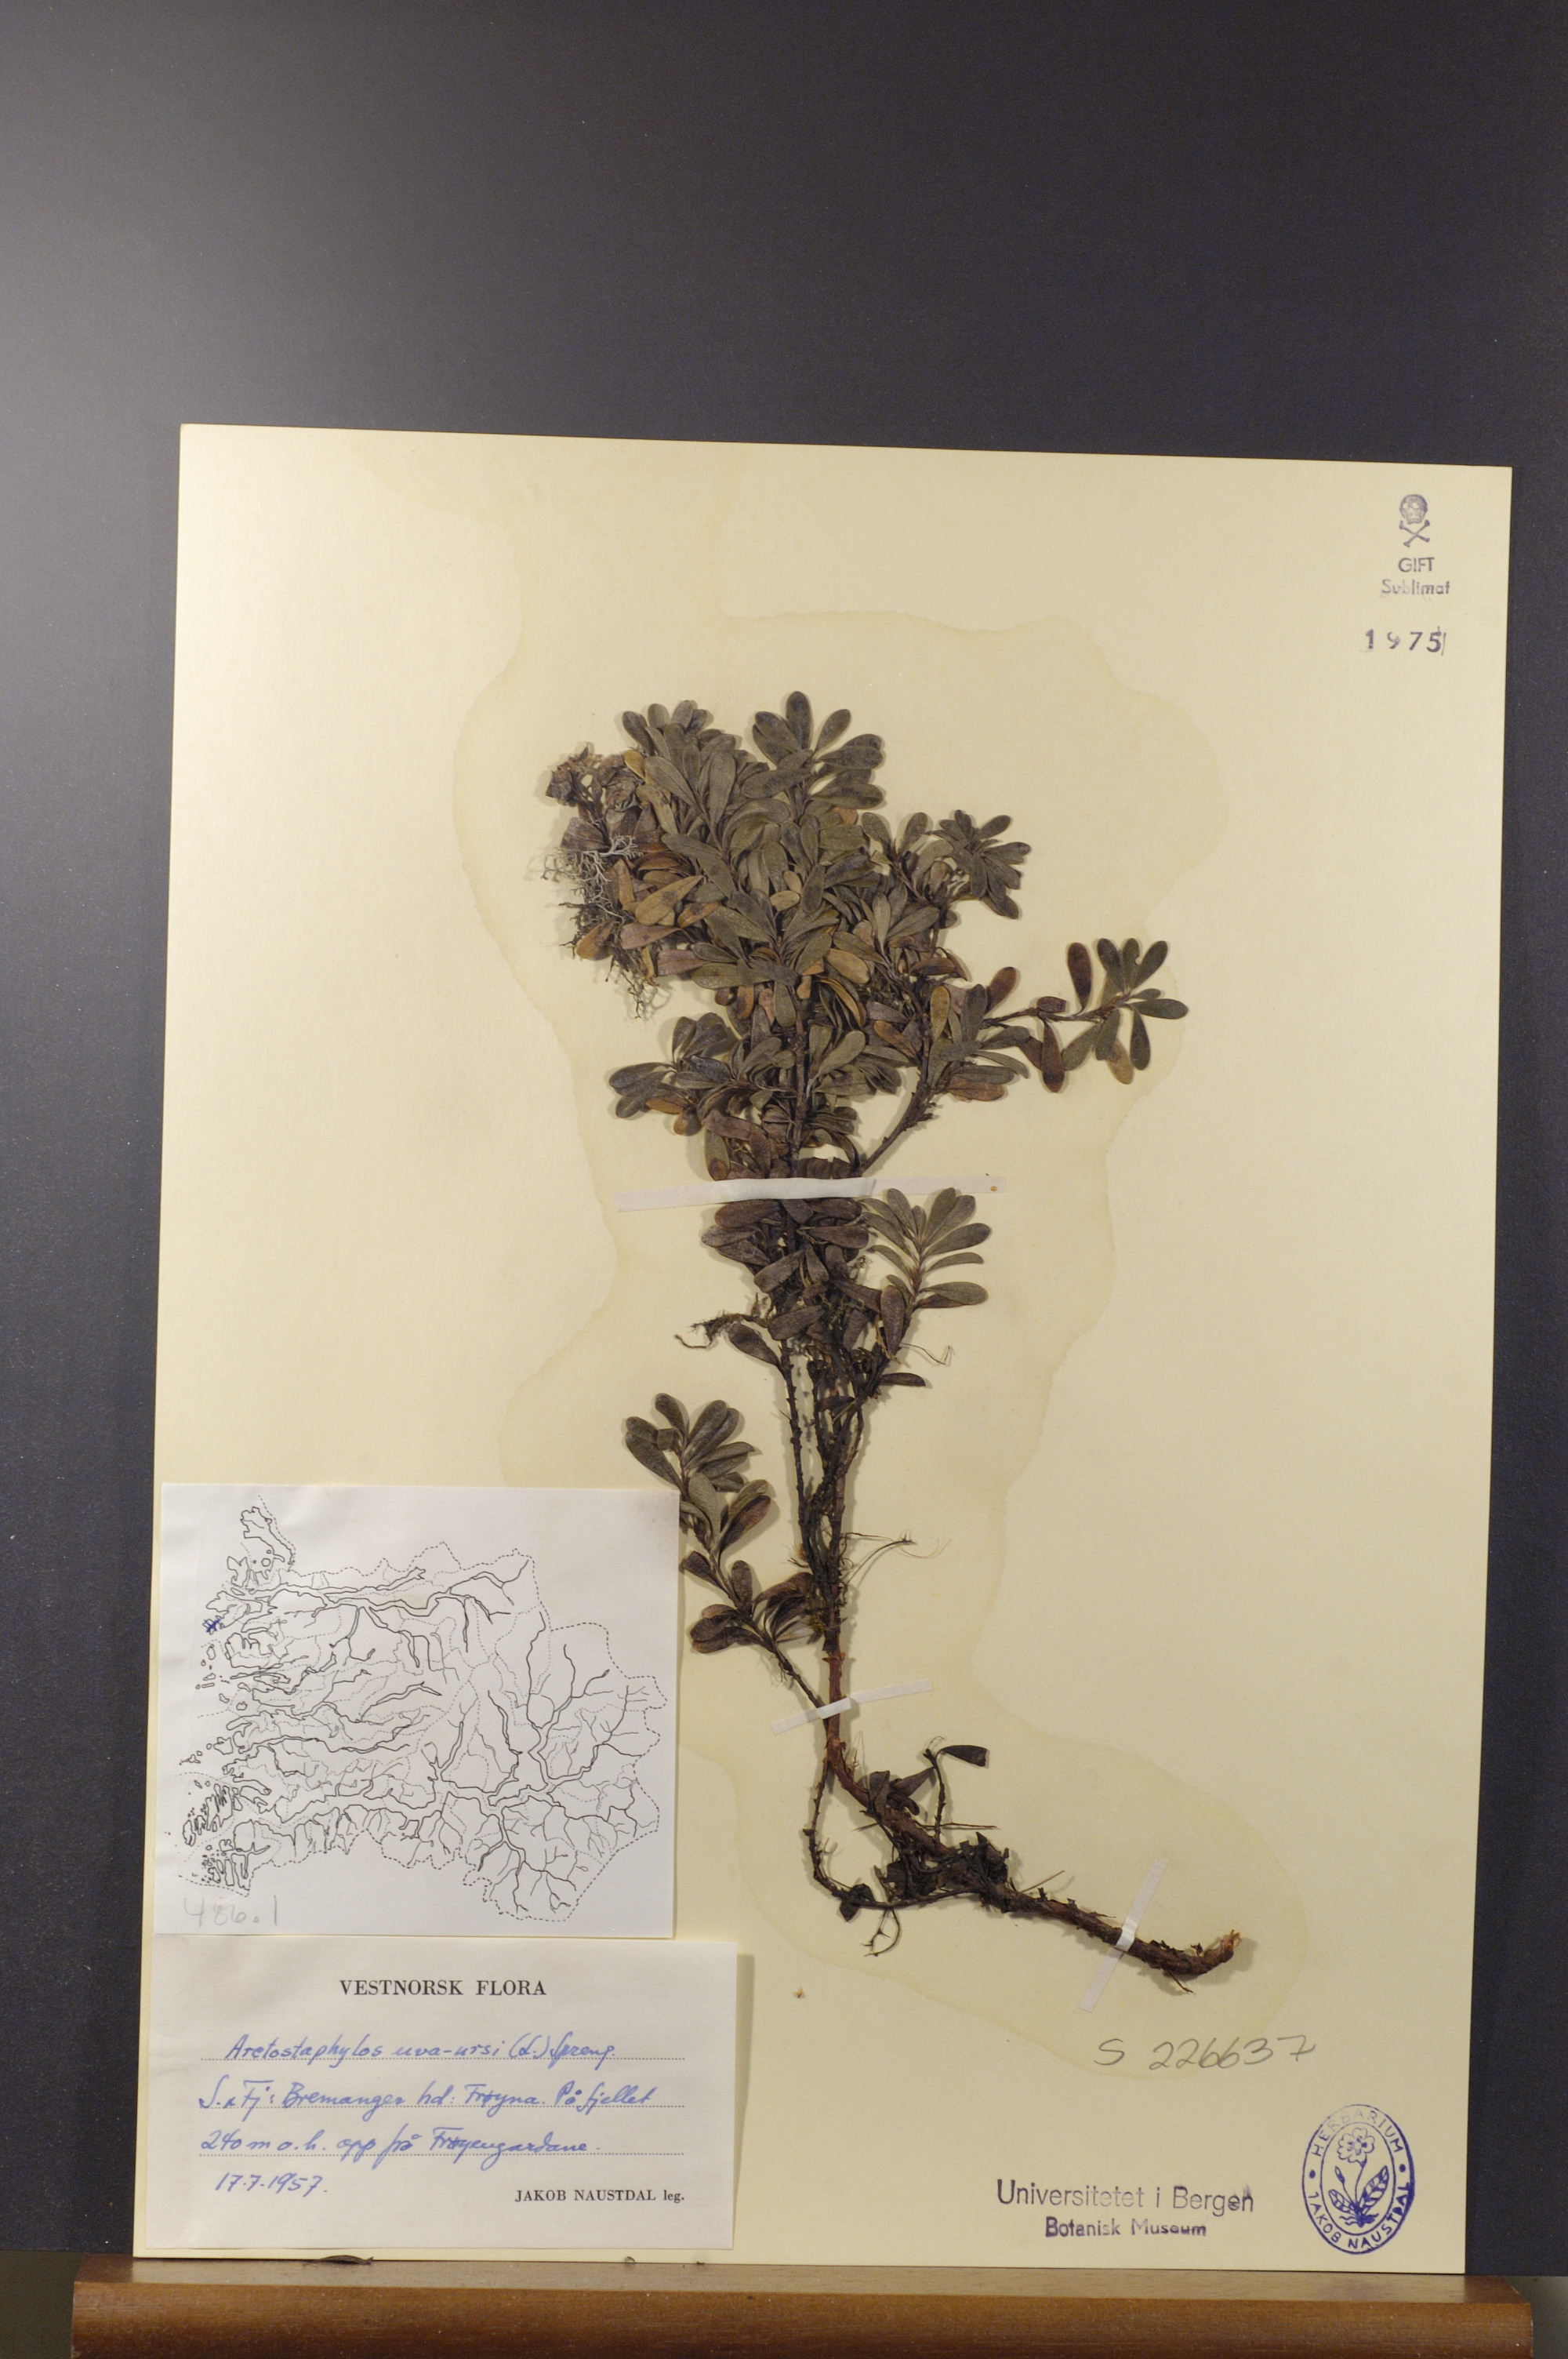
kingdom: Plantae
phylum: Tracheophyta
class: Magnoliopsida
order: Ericales
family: Ericaceae
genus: Arctostaphylos
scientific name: Arctostaphylos uva-ursi
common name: Bearberry
